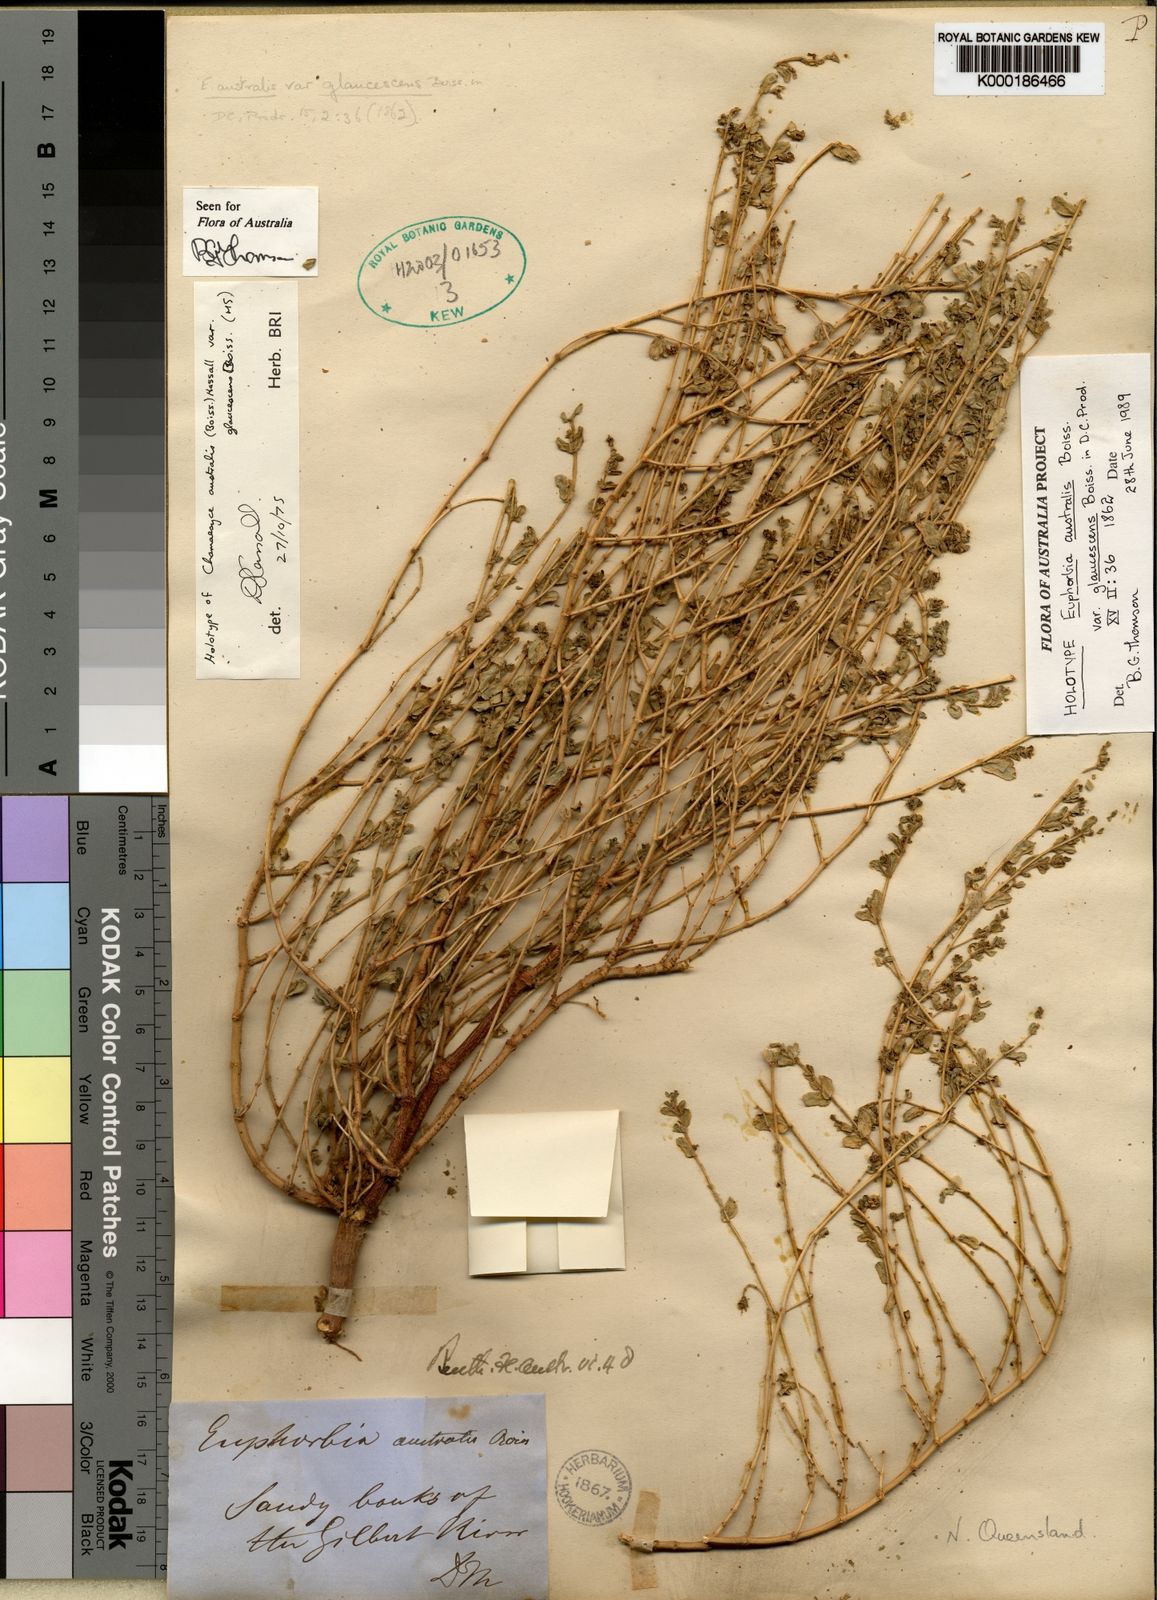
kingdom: Plantae
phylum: Tracheophyta
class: Magnoliopsida
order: Malpighiales
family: Euphorbiaceae
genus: Euphorbia
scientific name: Euphorbia schultzii
